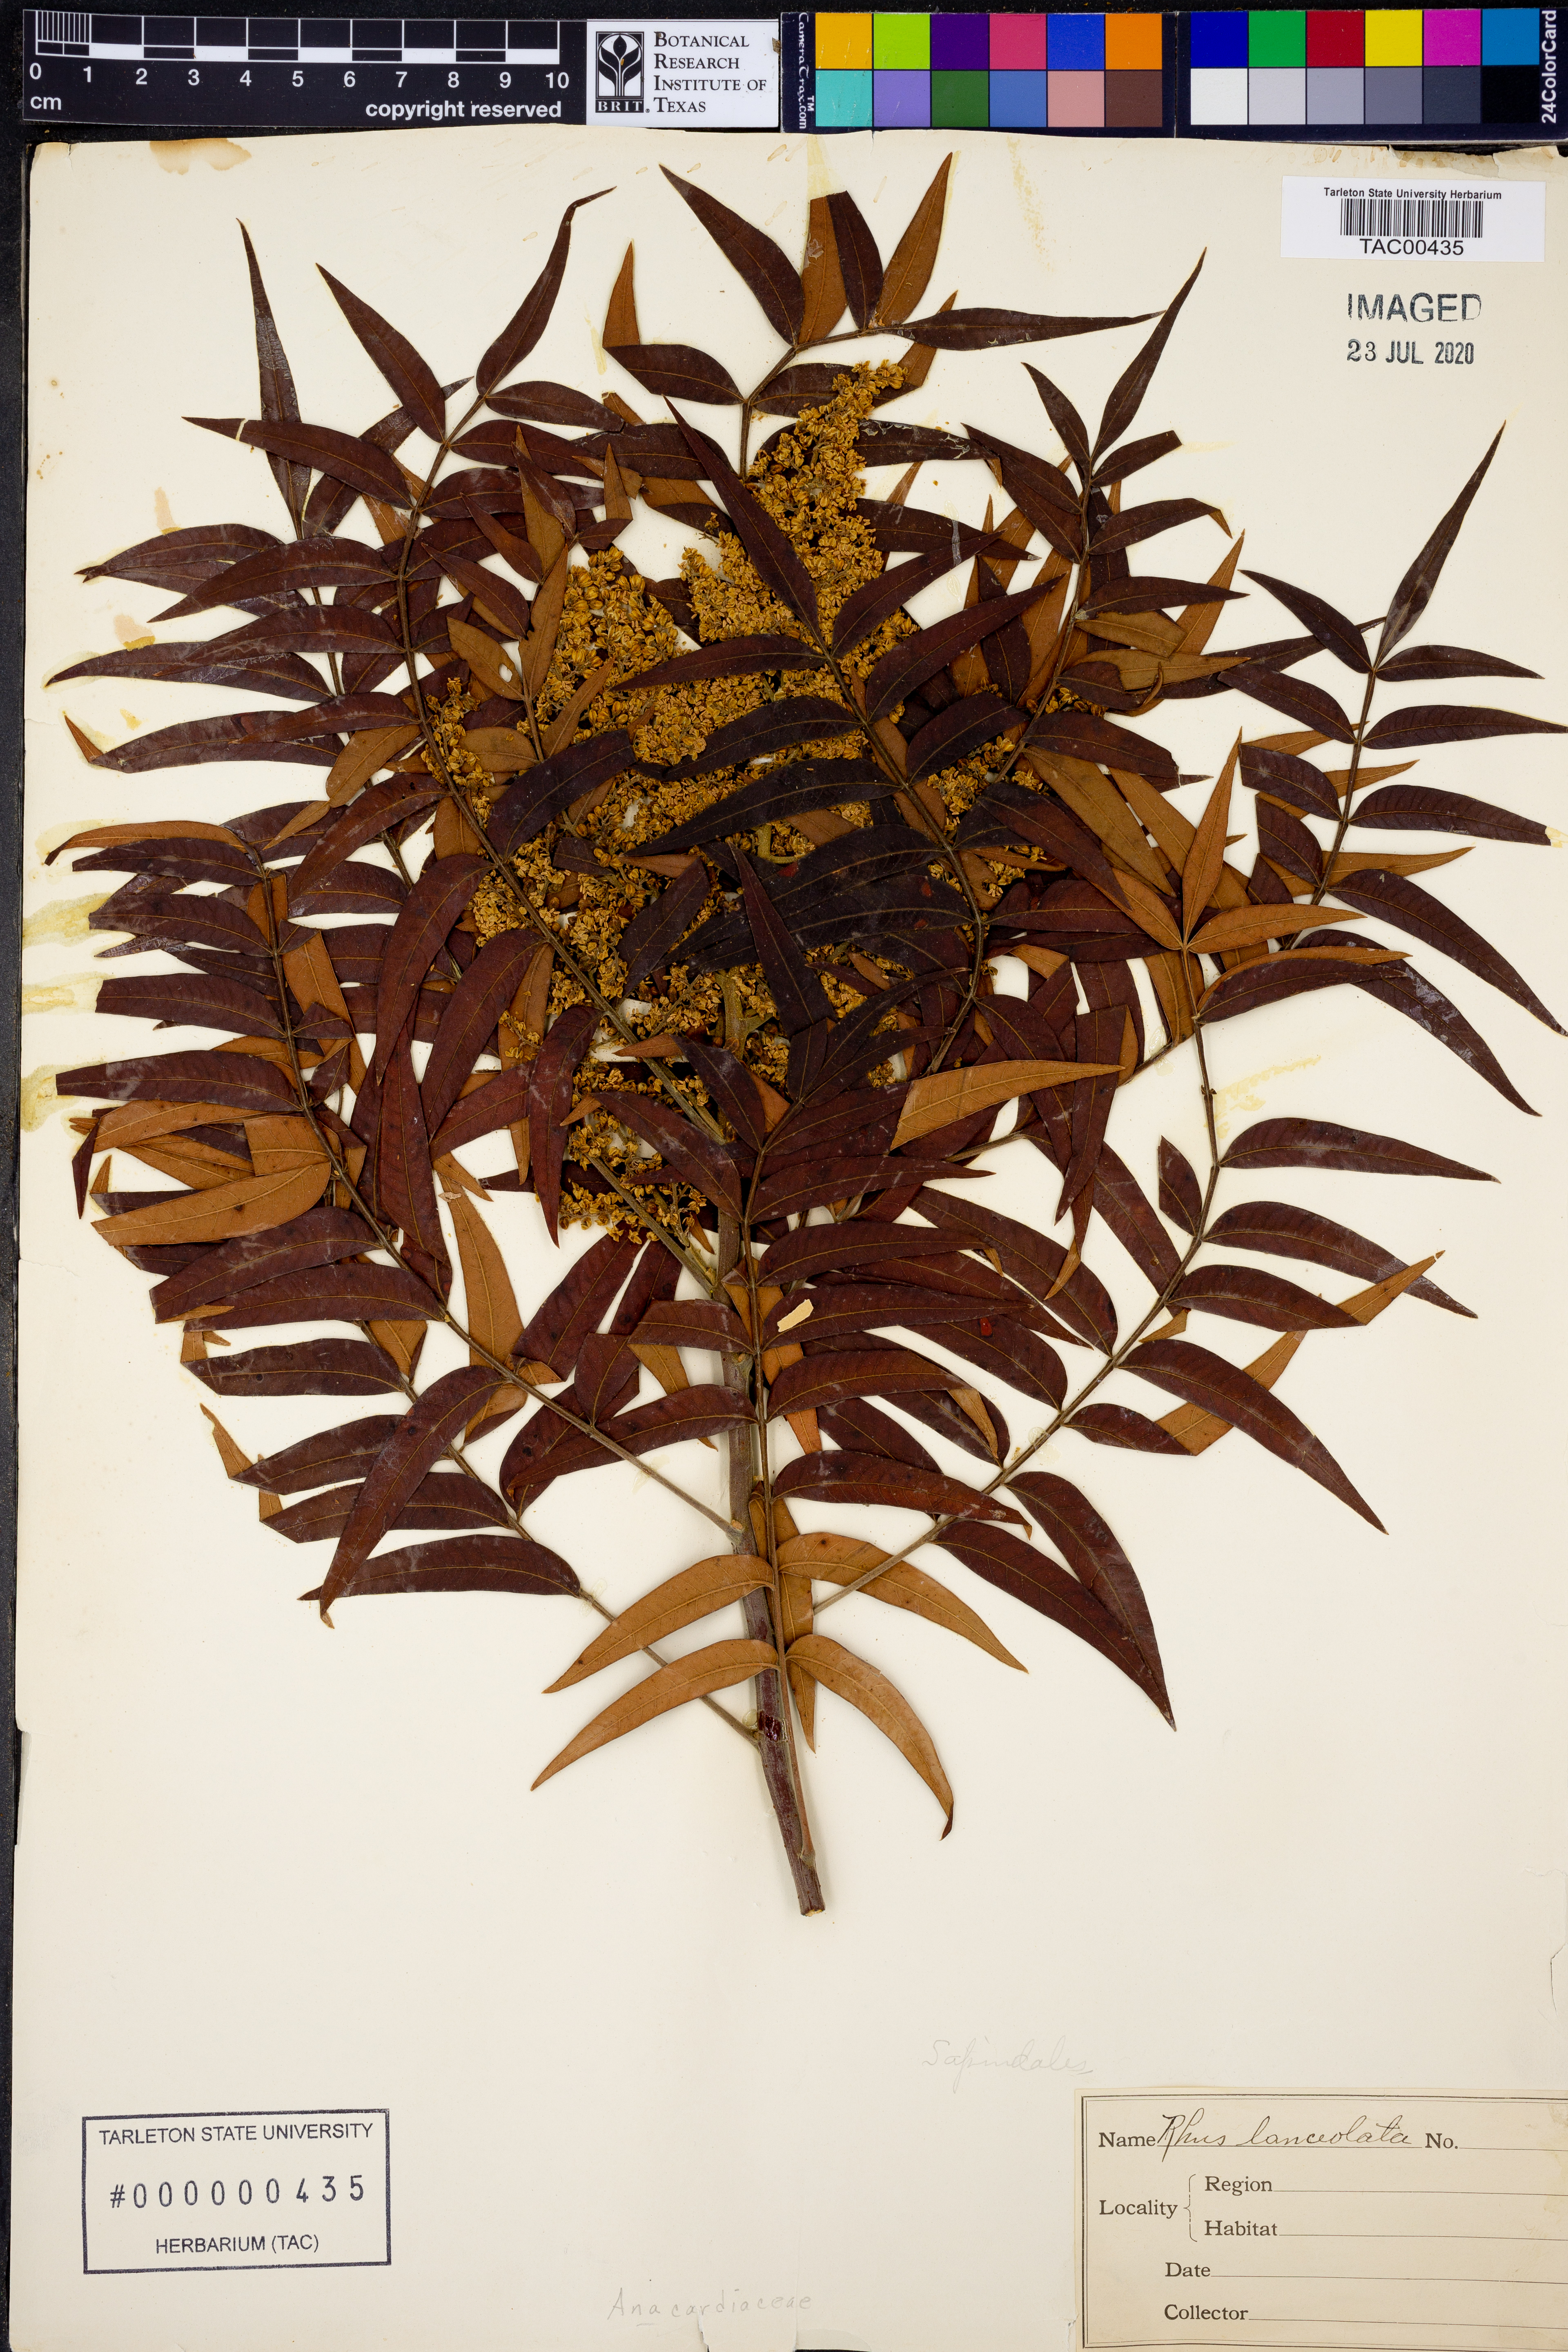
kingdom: Plantae
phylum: Tracheophyta
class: Magnoliopsida
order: Sapindales
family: Anacardiaceae
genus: Rhus
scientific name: Rhus lanceolata
